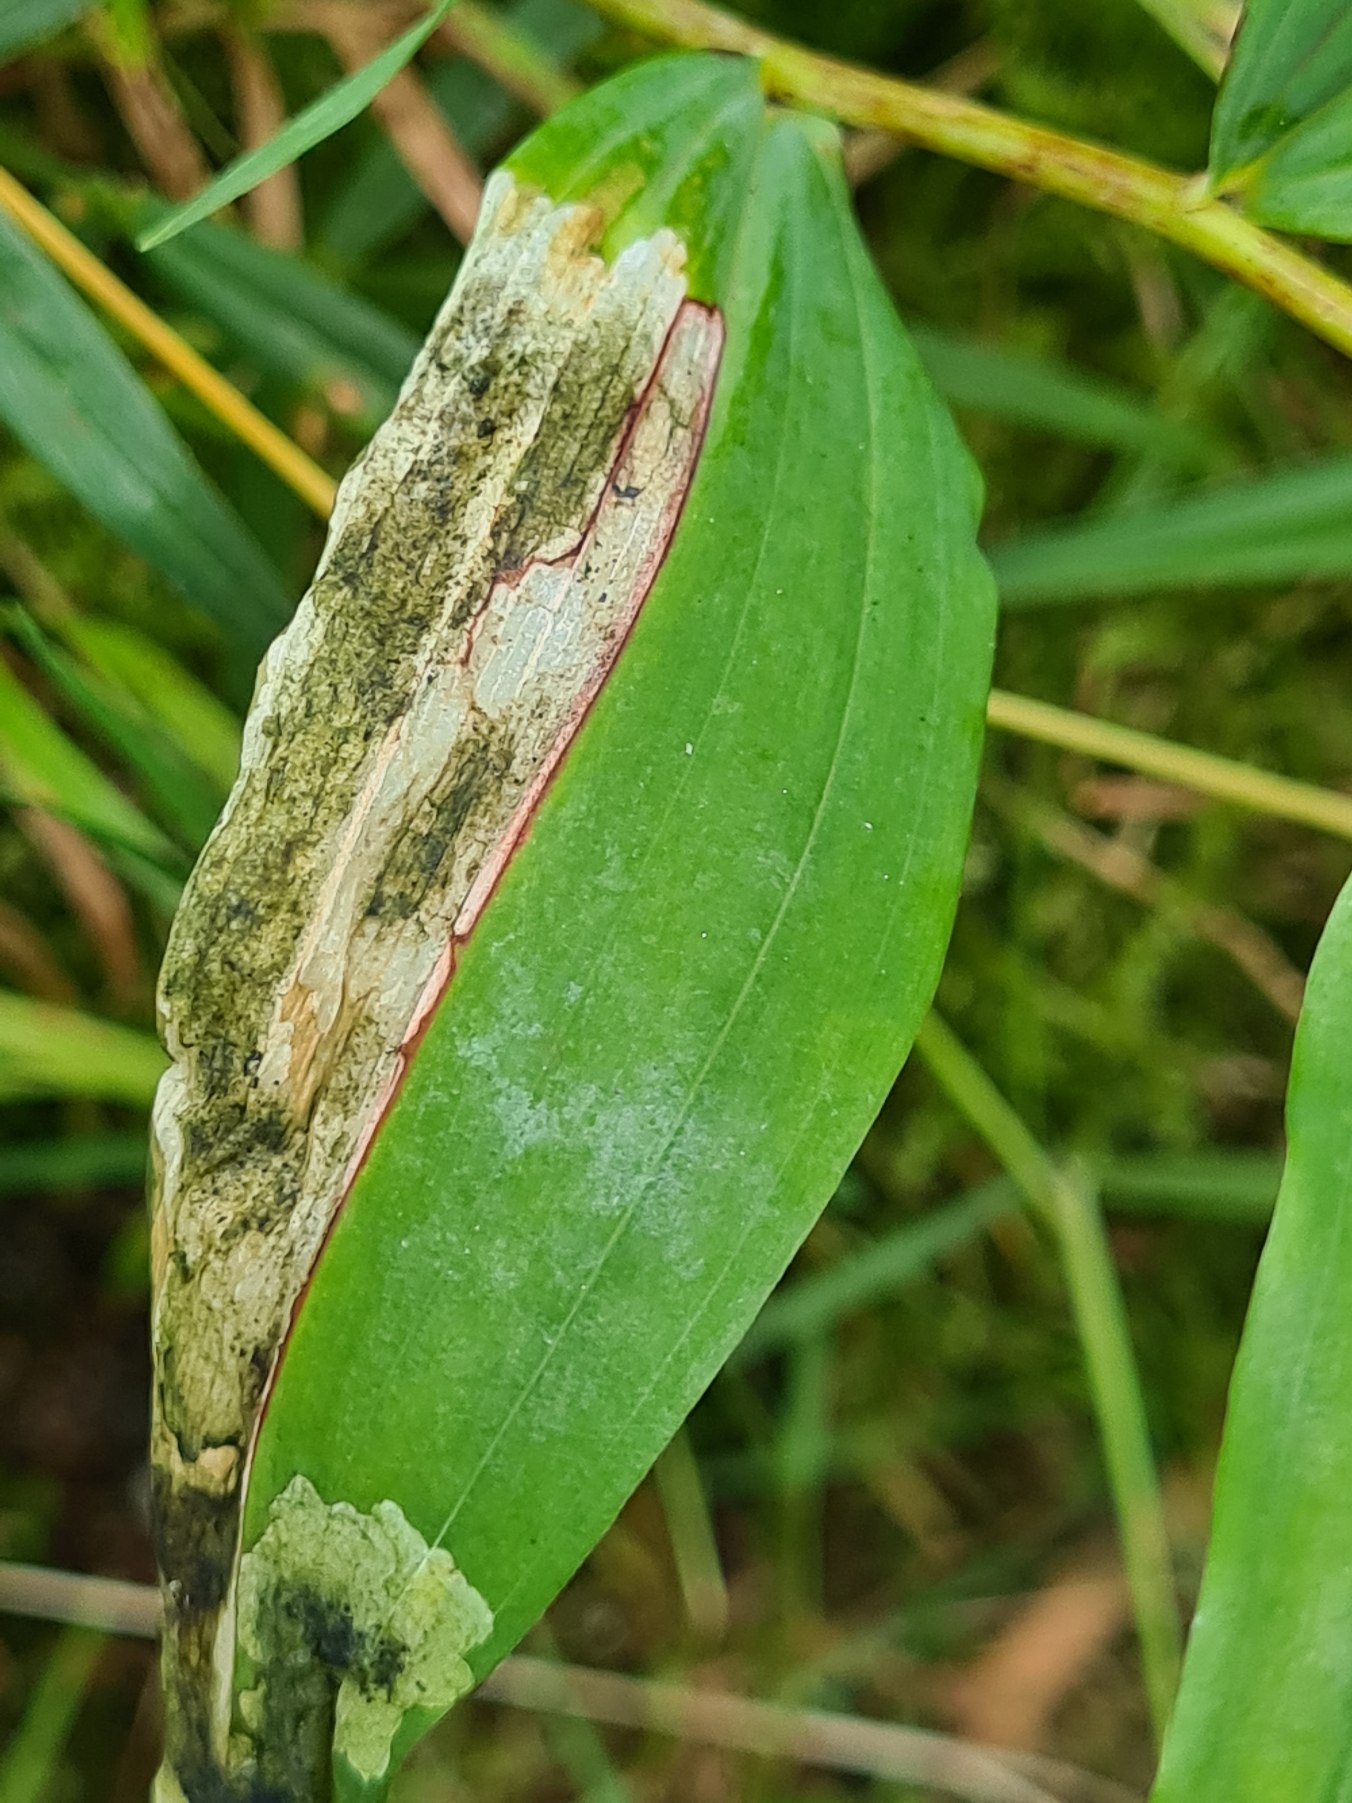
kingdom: Plantae
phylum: Tracheophyta
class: Liliopsida
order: Asparagales
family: Asparagaceae
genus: Polygonatum
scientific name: Polygonatum multiflorum
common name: Stor konval
